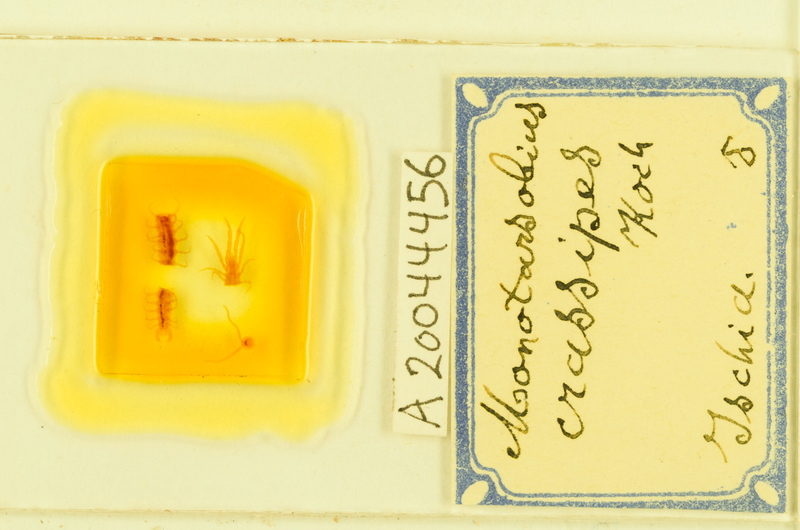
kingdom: Animalia
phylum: Arthropoda
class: Chilopoda
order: Lithobiomorpha
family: Lithobiidae
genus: Lithobius
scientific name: Lithobius crassipes
